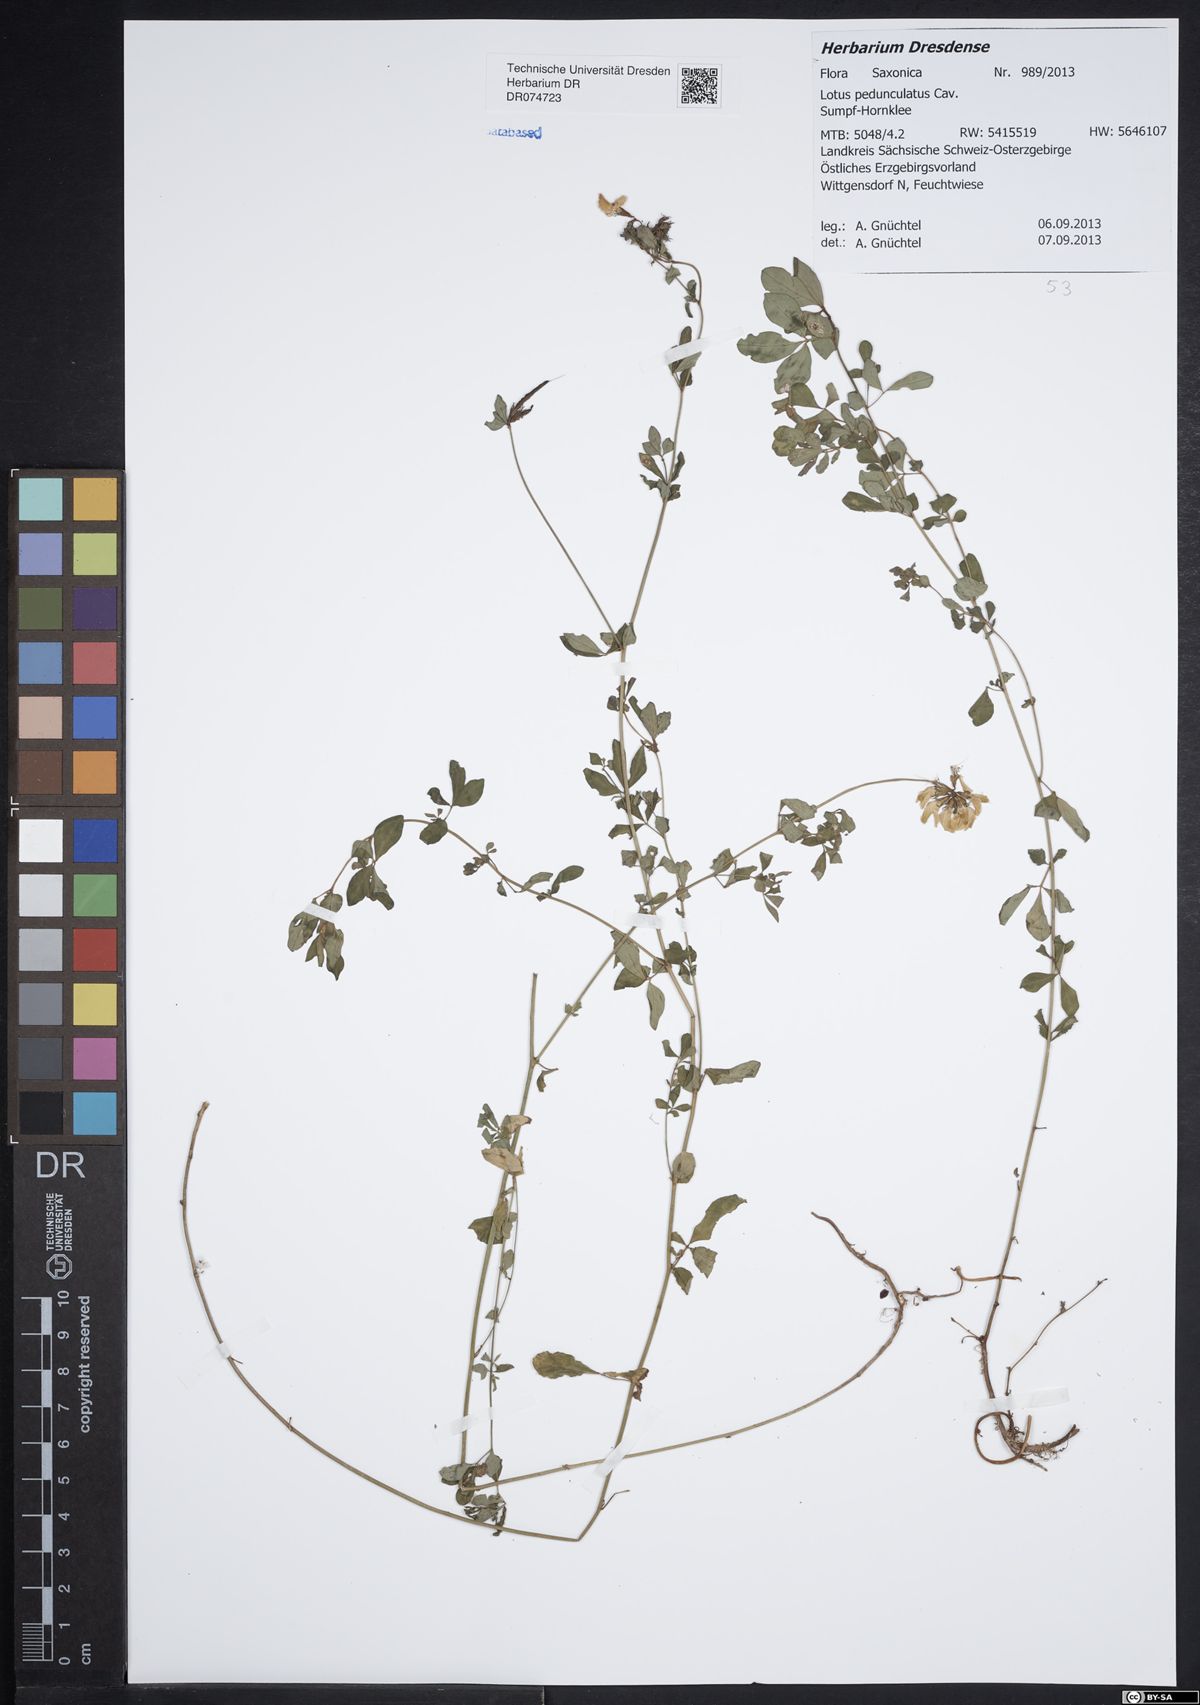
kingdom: Plantae
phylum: Tracheophyta
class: Magnoliopsida
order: Fabales
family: Fabaceae
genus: Lotus
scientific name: Lotus pedunculatus
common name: Greater birdsfoot-trefoil
